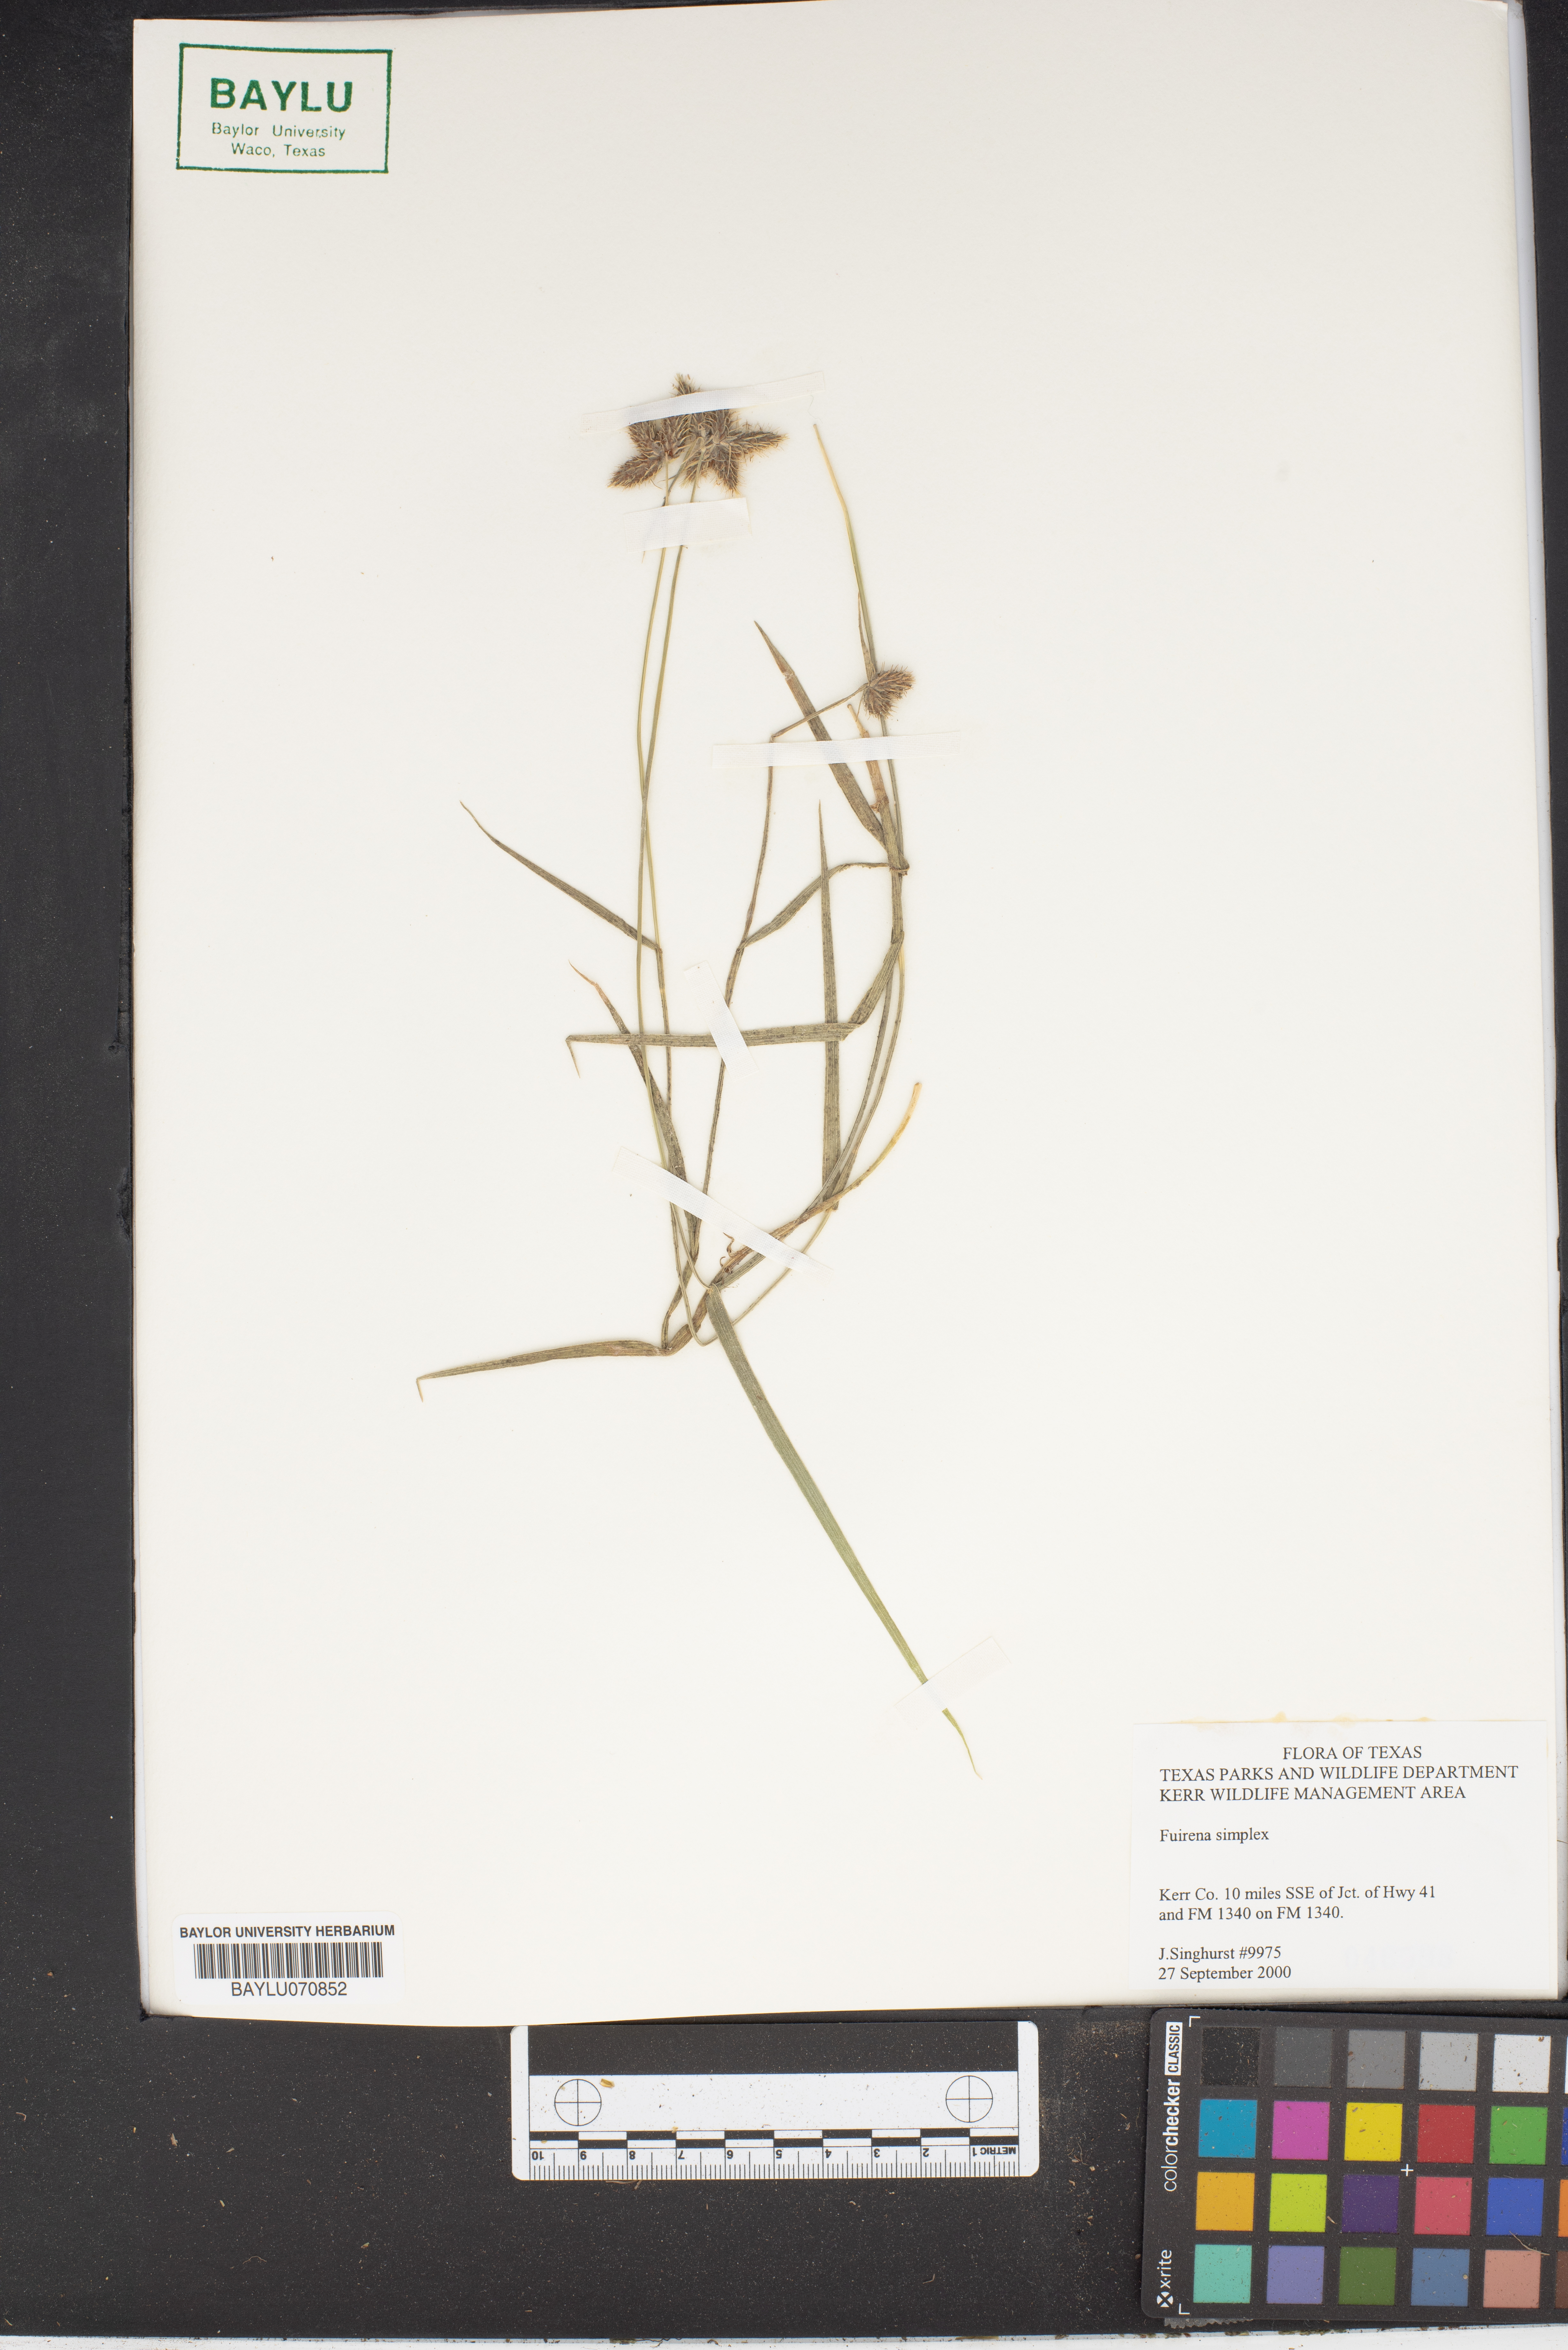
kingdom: Plantae
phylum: Tracheophyta
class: Liliopsida
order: Poales
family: Cyperaceae
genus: Fuirena
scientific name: Fuirena simplex
